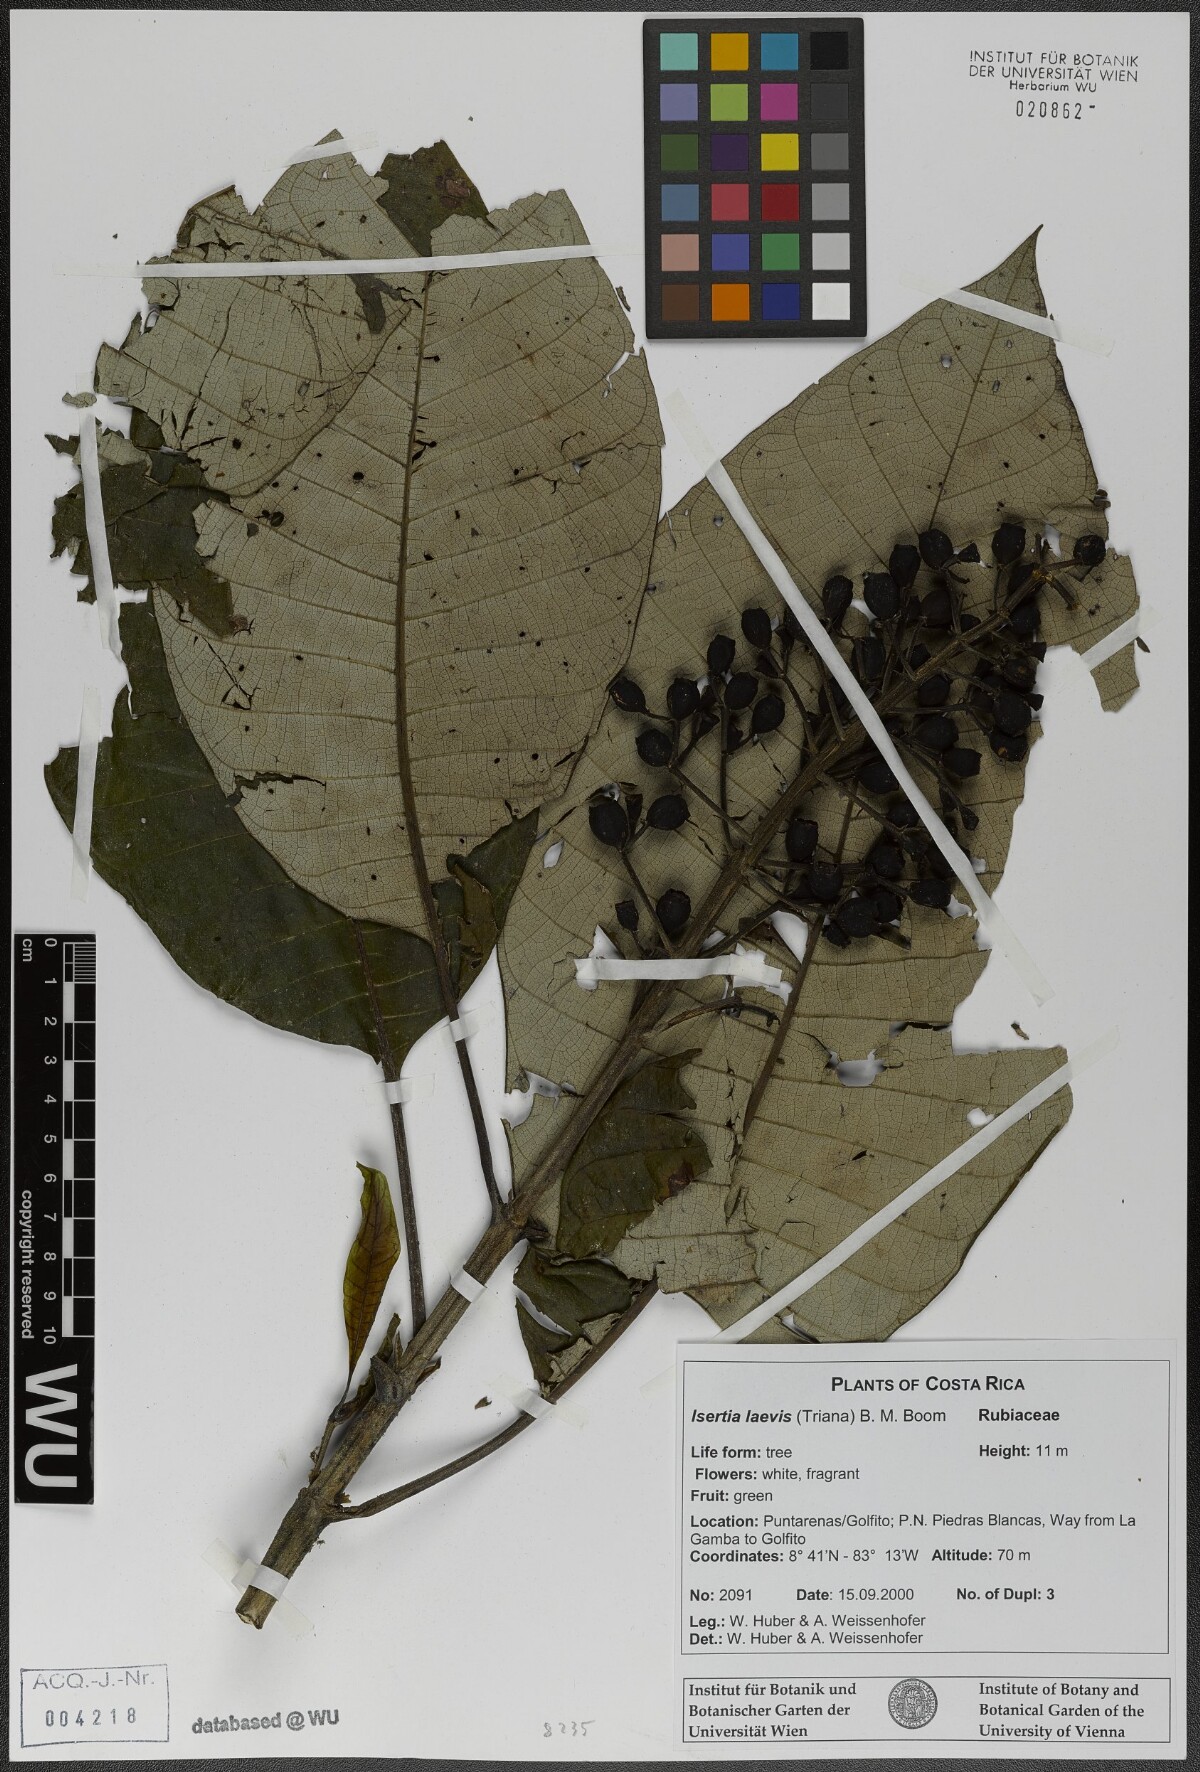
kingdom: Plantae
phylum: Tracheophyta
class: Magnoliopsida
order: Gentianales
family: Rubiaceae
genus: Isertia
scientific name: Isertia laevis
